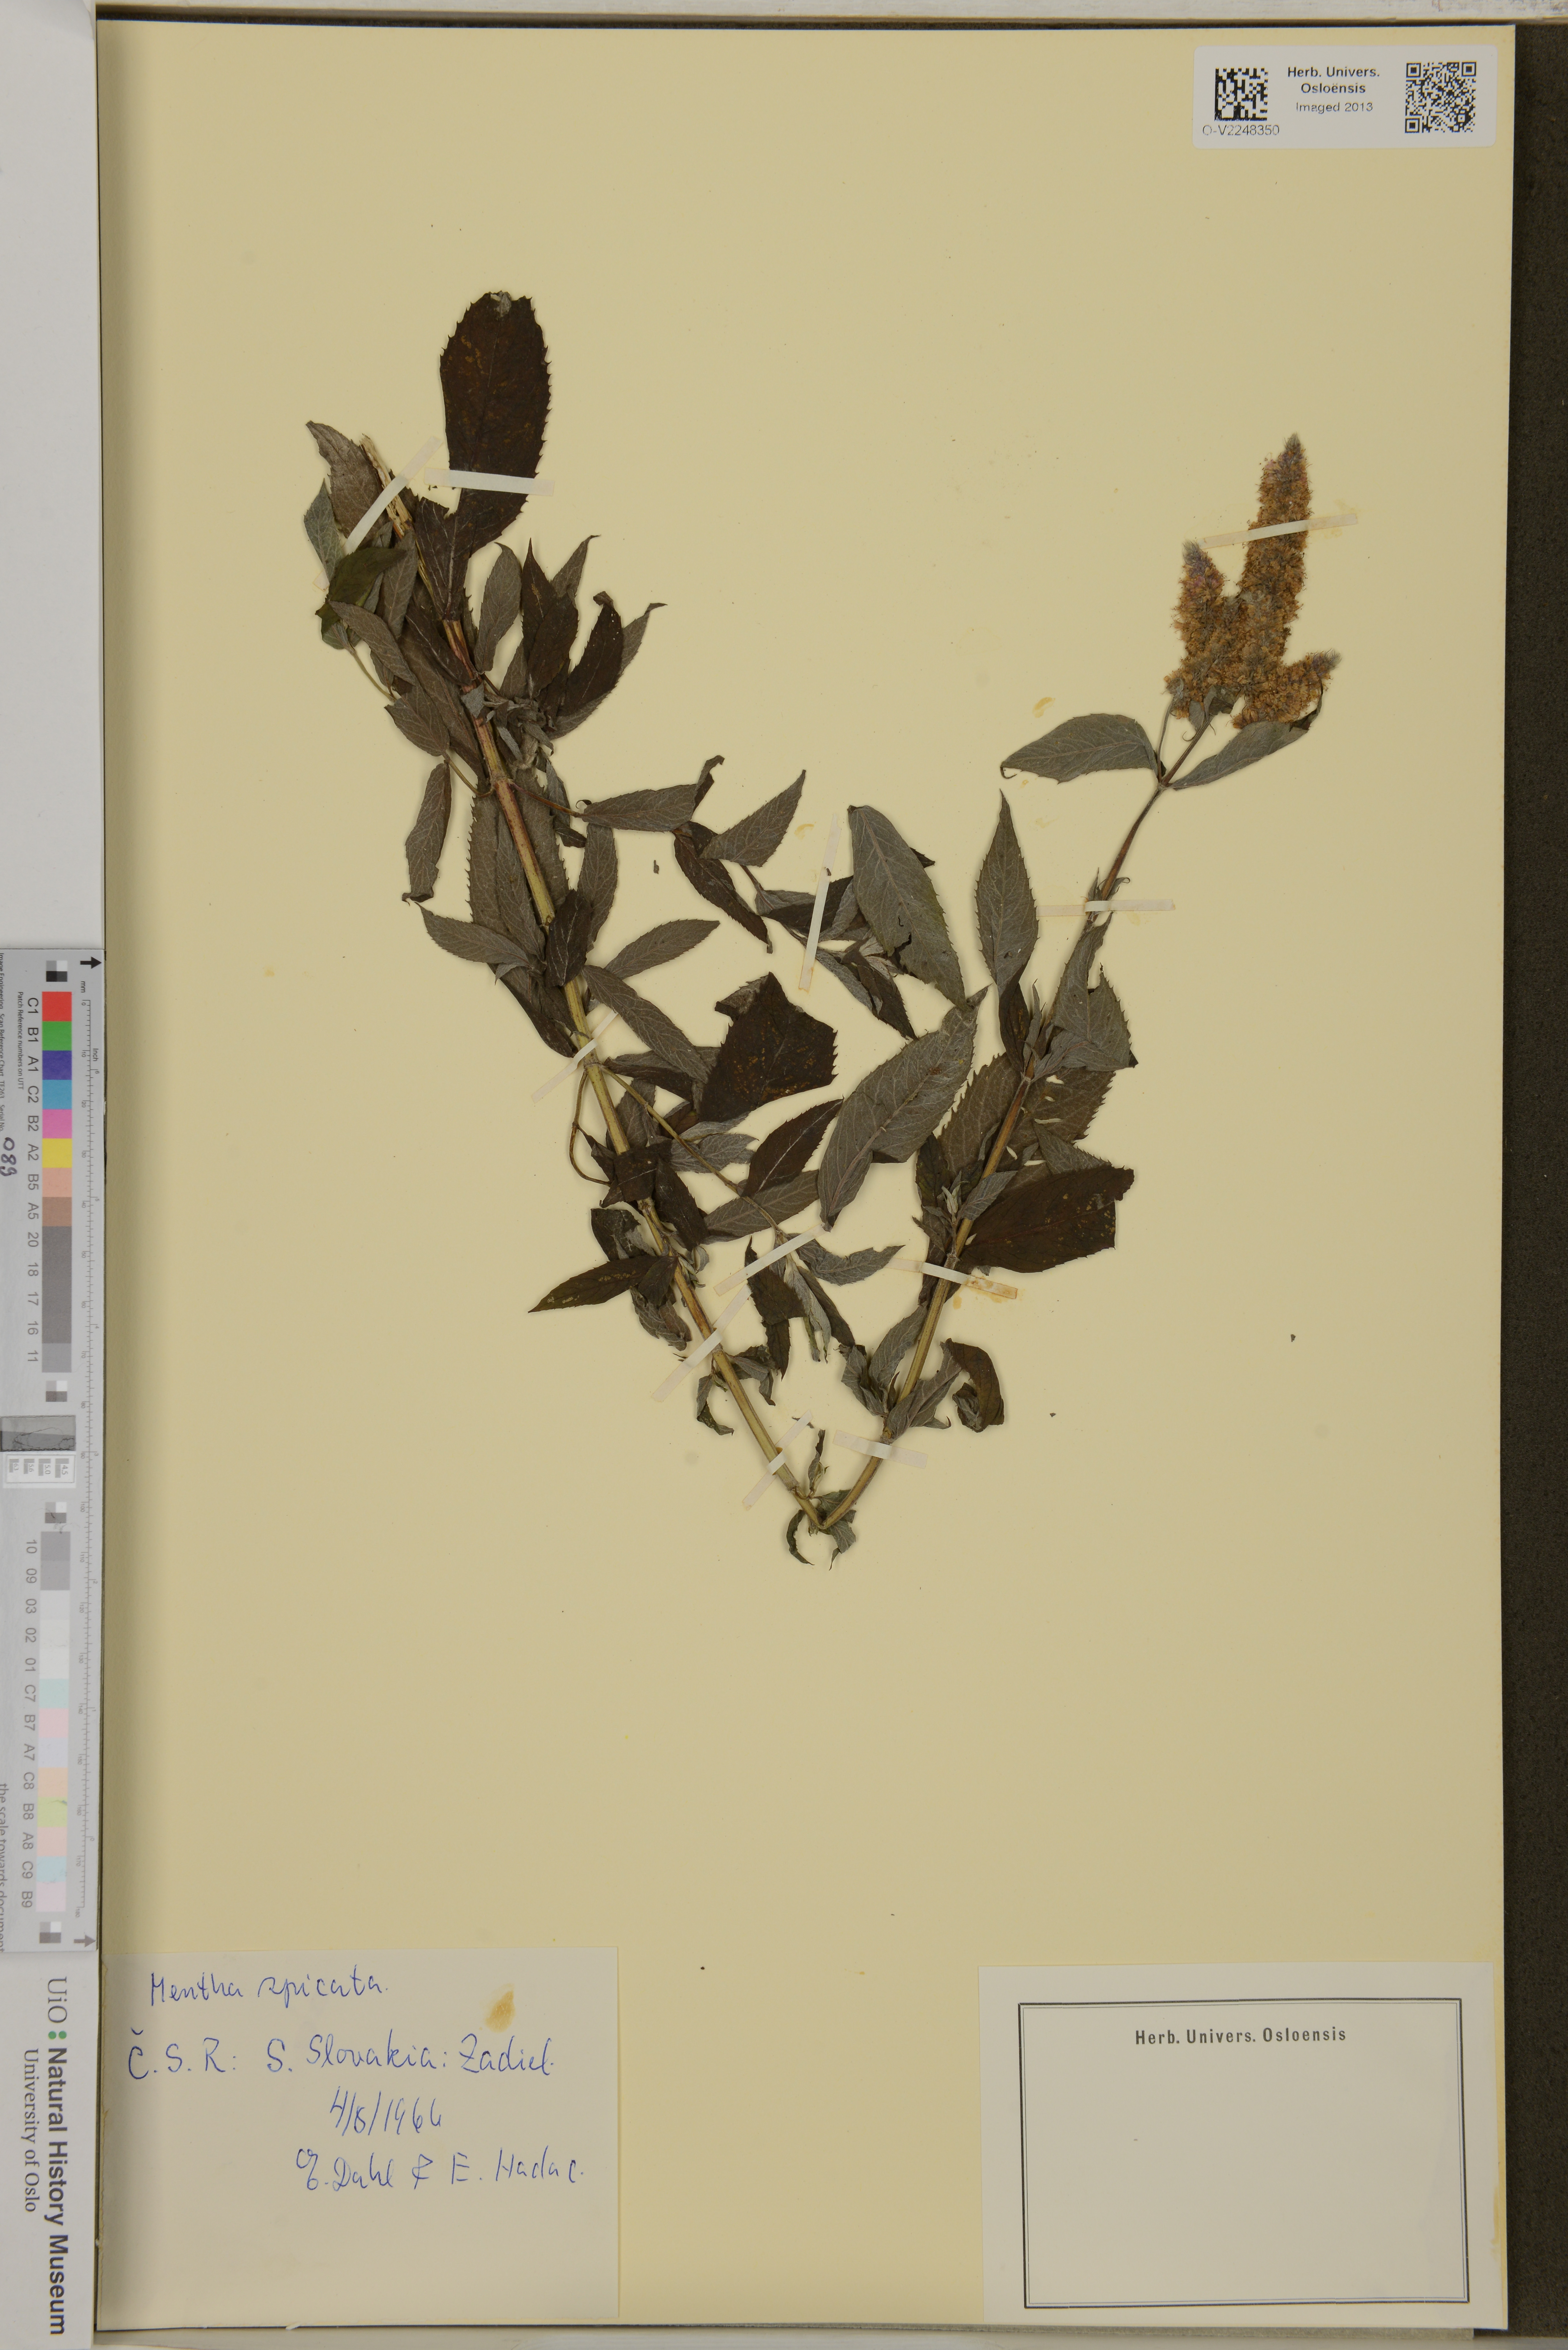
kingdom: Plantae
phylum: Tracheophyta
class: Magnoliopsida
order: Lamiales
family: Lamiaceae
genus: Mentha
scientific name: Mentha spicata
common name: Spearmint
